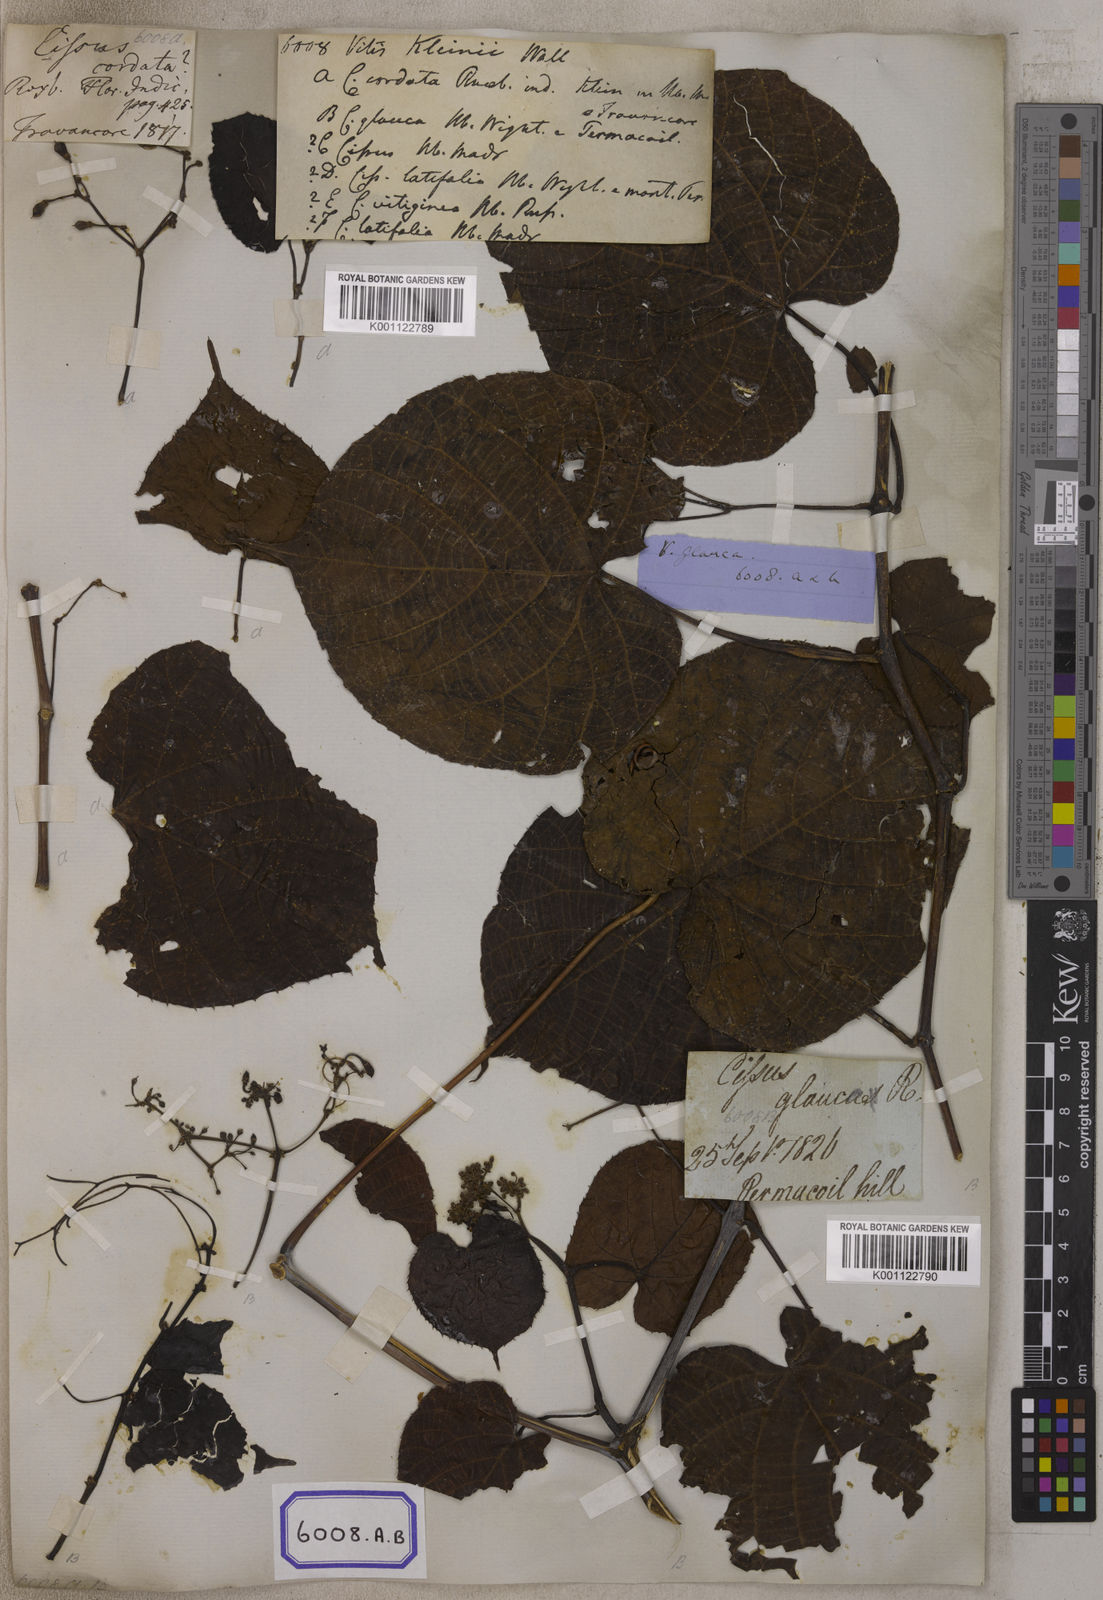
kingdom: Plantae
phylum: Tracheophyta
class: Magnoliopsida
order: Vitales
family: Vitaceae
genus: Cissus
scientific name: Cissus repens
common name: Cissus
